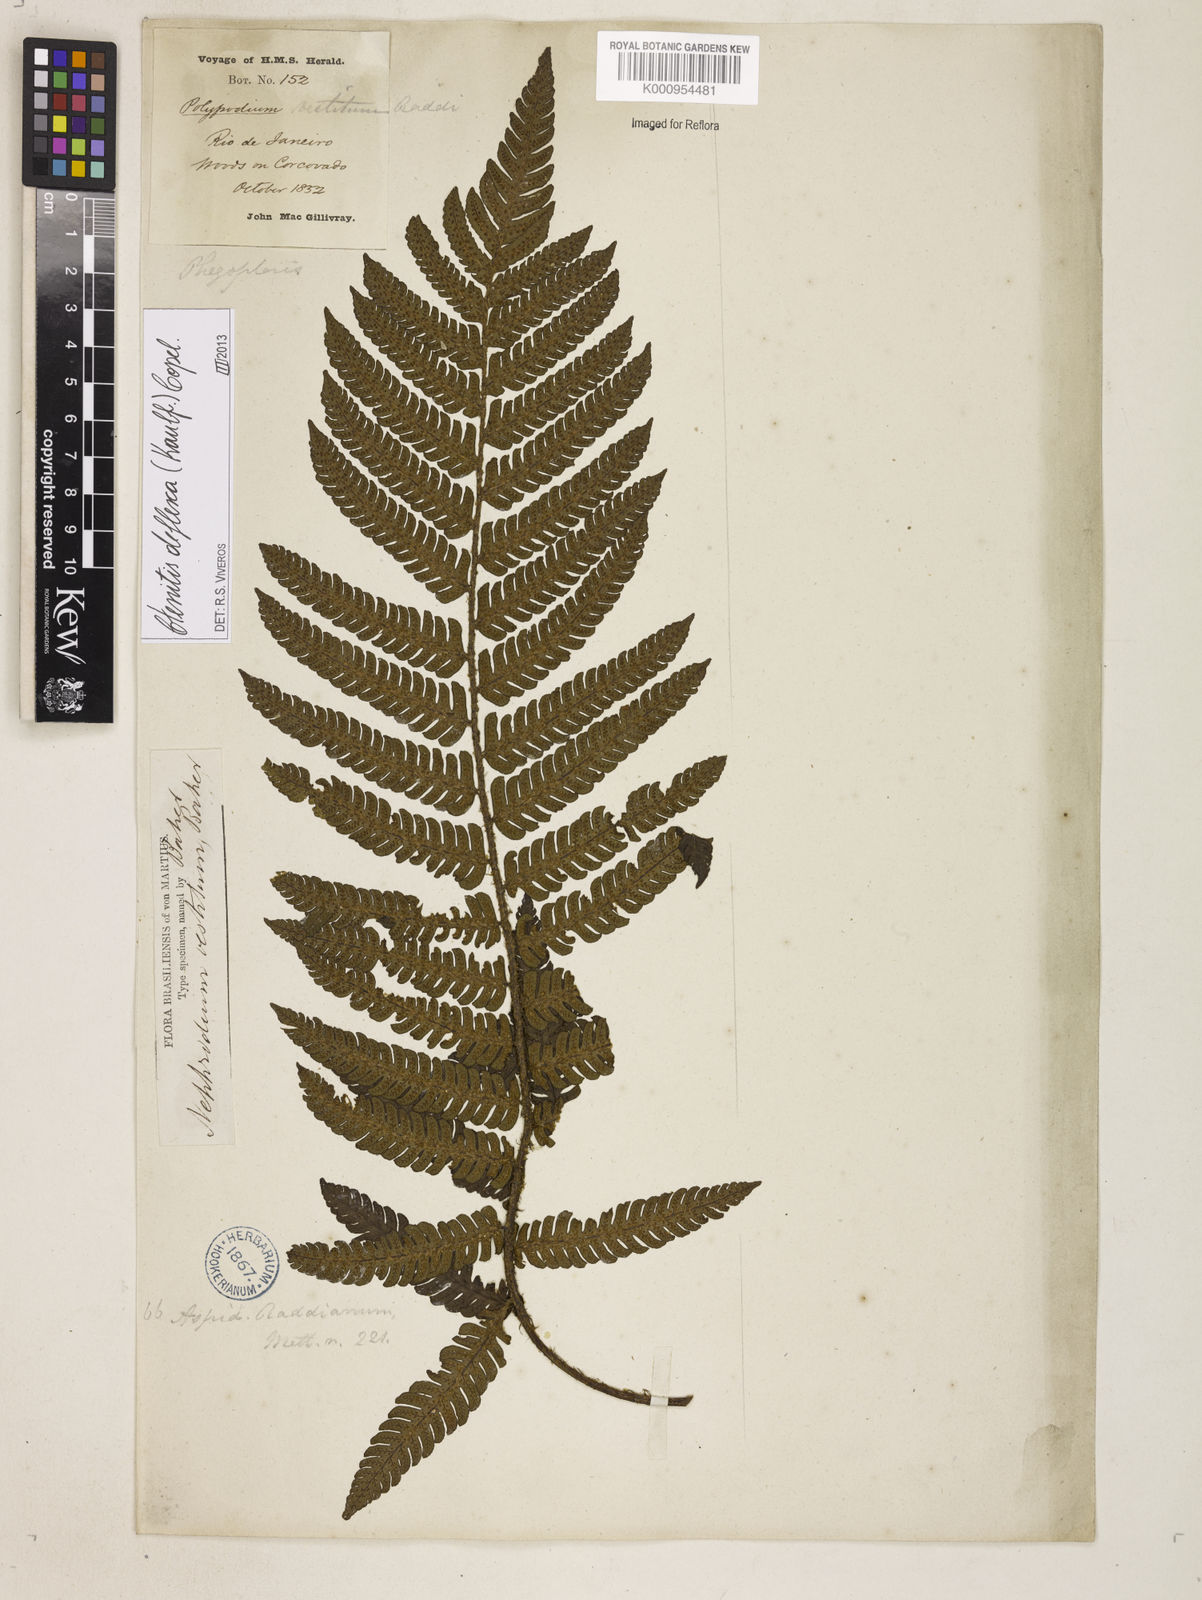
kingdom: Plantae
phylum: Tracheophyta
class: Polypodiopsida
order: Polypodiales
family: Dryopteridaceae
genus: Ctenitis
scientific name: Ctenitis deflexa
